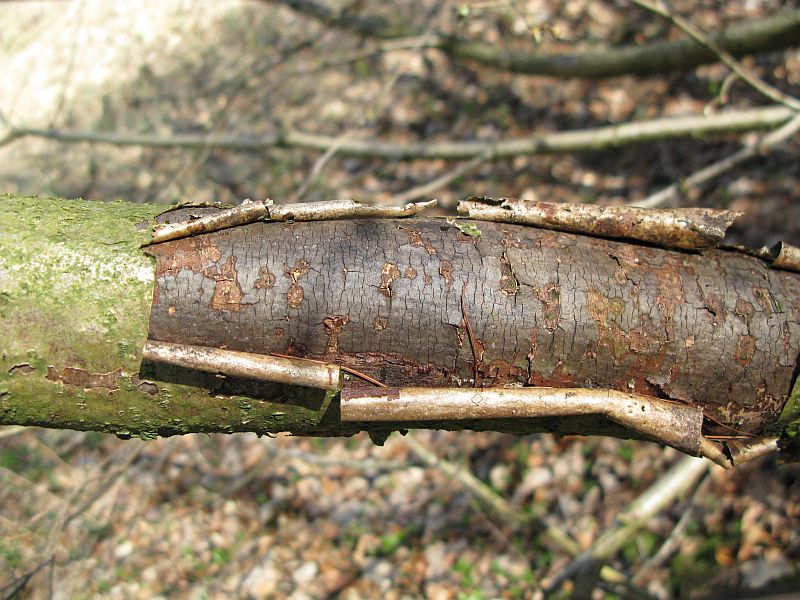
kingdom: Fungi
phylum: Ascomycota
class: Sordariomycetes
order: Xylariales
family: Diatrypaceae
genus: Diatrype
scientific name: Diatrype decorticata
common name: barksprænger-kulskorpe
